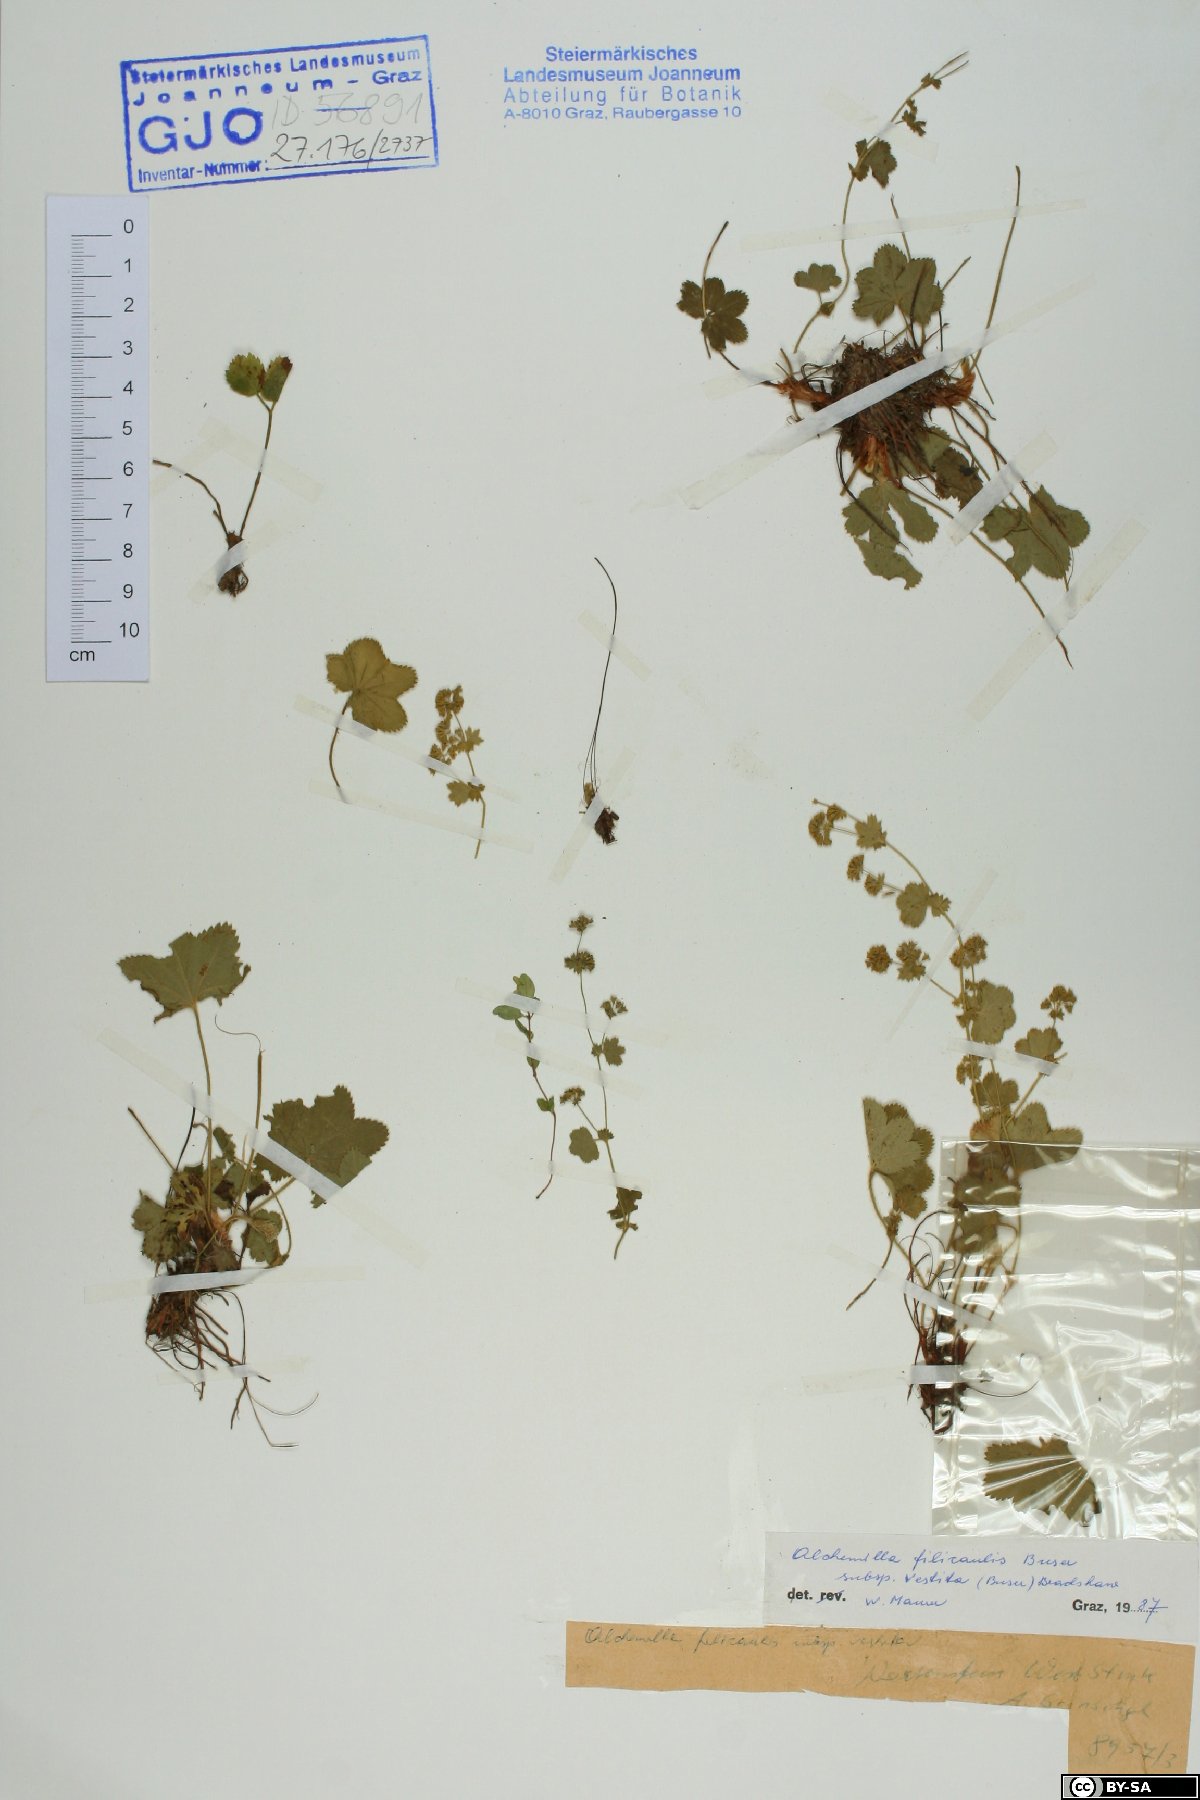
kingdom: Plantae
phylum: Tracheophyta
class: Magnoliopsida
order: Rosales
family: Rosaceae
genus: Alchemilla
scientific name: Alchemilla filicaulis
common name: Hairy lady's-mantle
